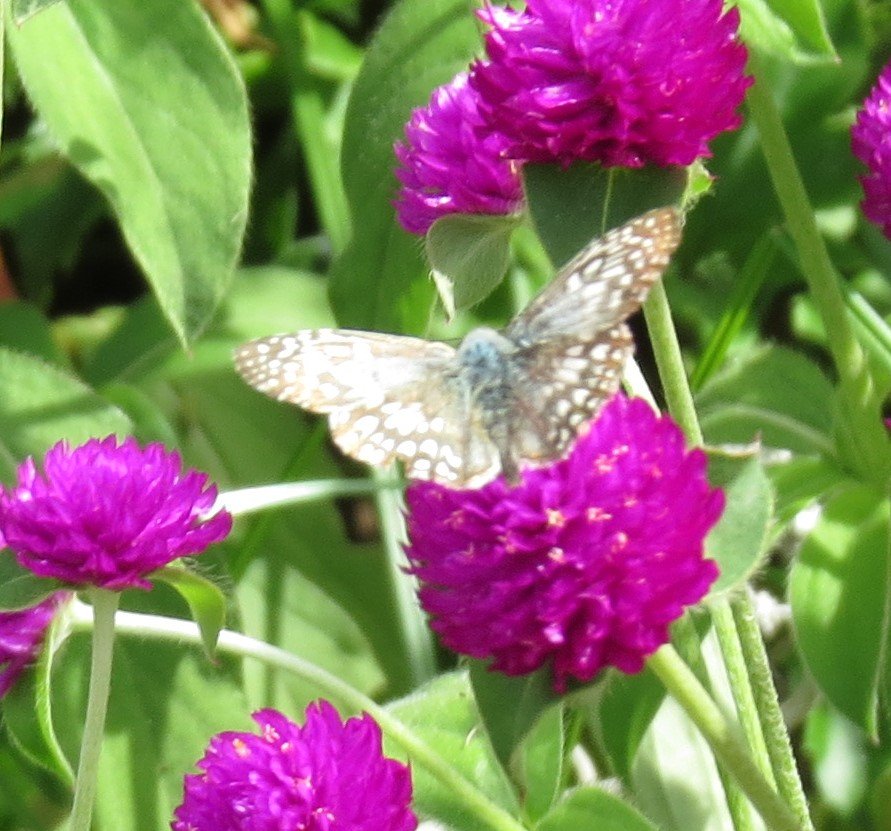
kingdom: Animalia
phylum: Arthropoda
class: Insecta
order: Lepidoptera
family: Hesperiidae
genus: Pyrgus
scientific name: Pyrgus oileus
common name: Tropical Checkered-Skipper
